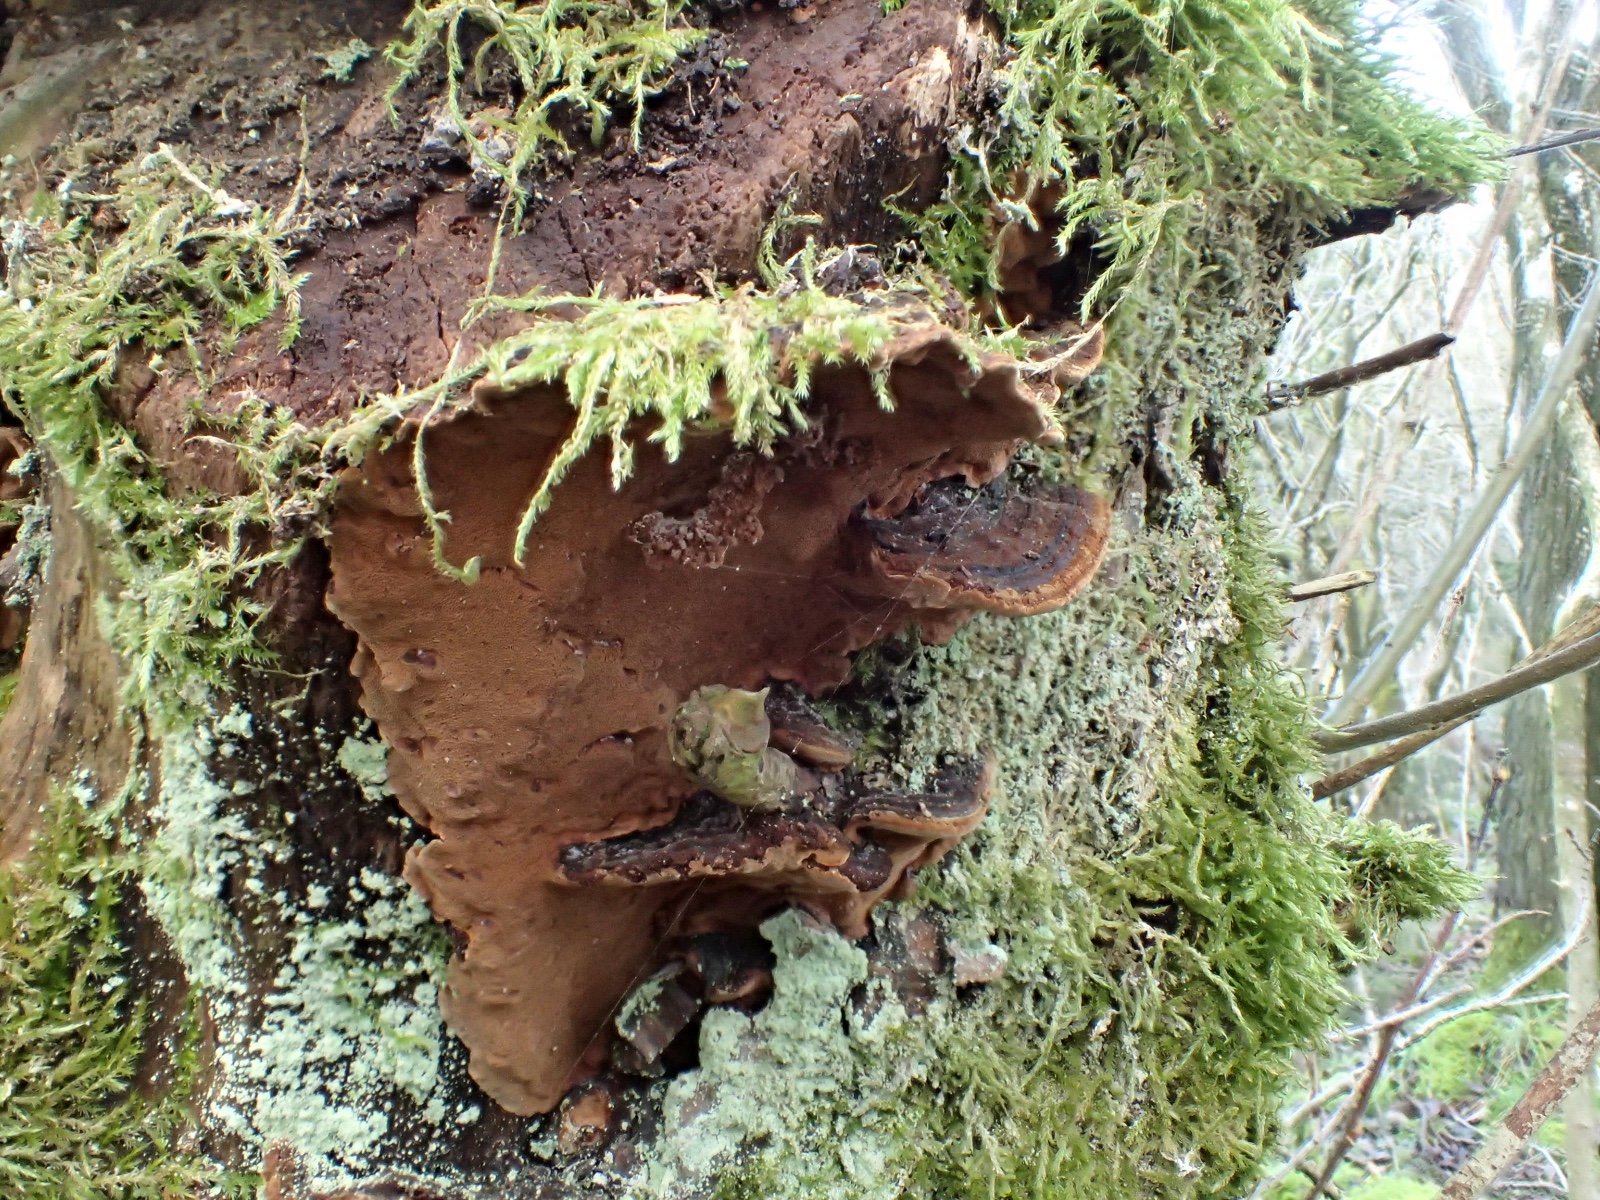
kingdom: Fungi
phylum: Basidiomycota
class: Agaricomycetes
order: Hymenochaetales
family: Hymenochaetaceae
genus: Phellinopsis
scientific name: Phellinopsis conchata
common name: pile-ildporesvamp
